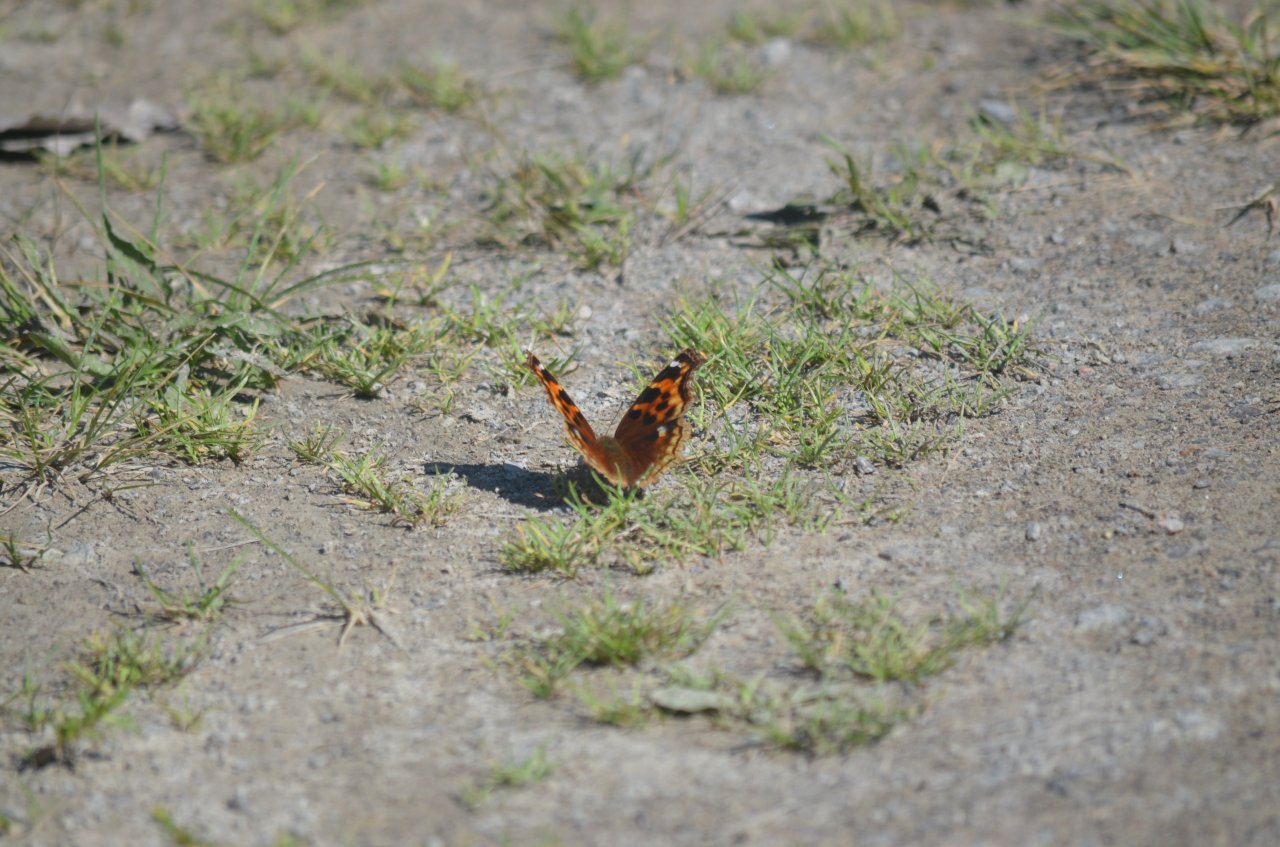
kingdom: Animalia
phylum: Arthropoda
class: Insecta
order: Lepidoptera
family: Nymphalidae
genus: Polygonia
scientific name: Polygonia vaualbum
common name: Compton Tortoiseshell
